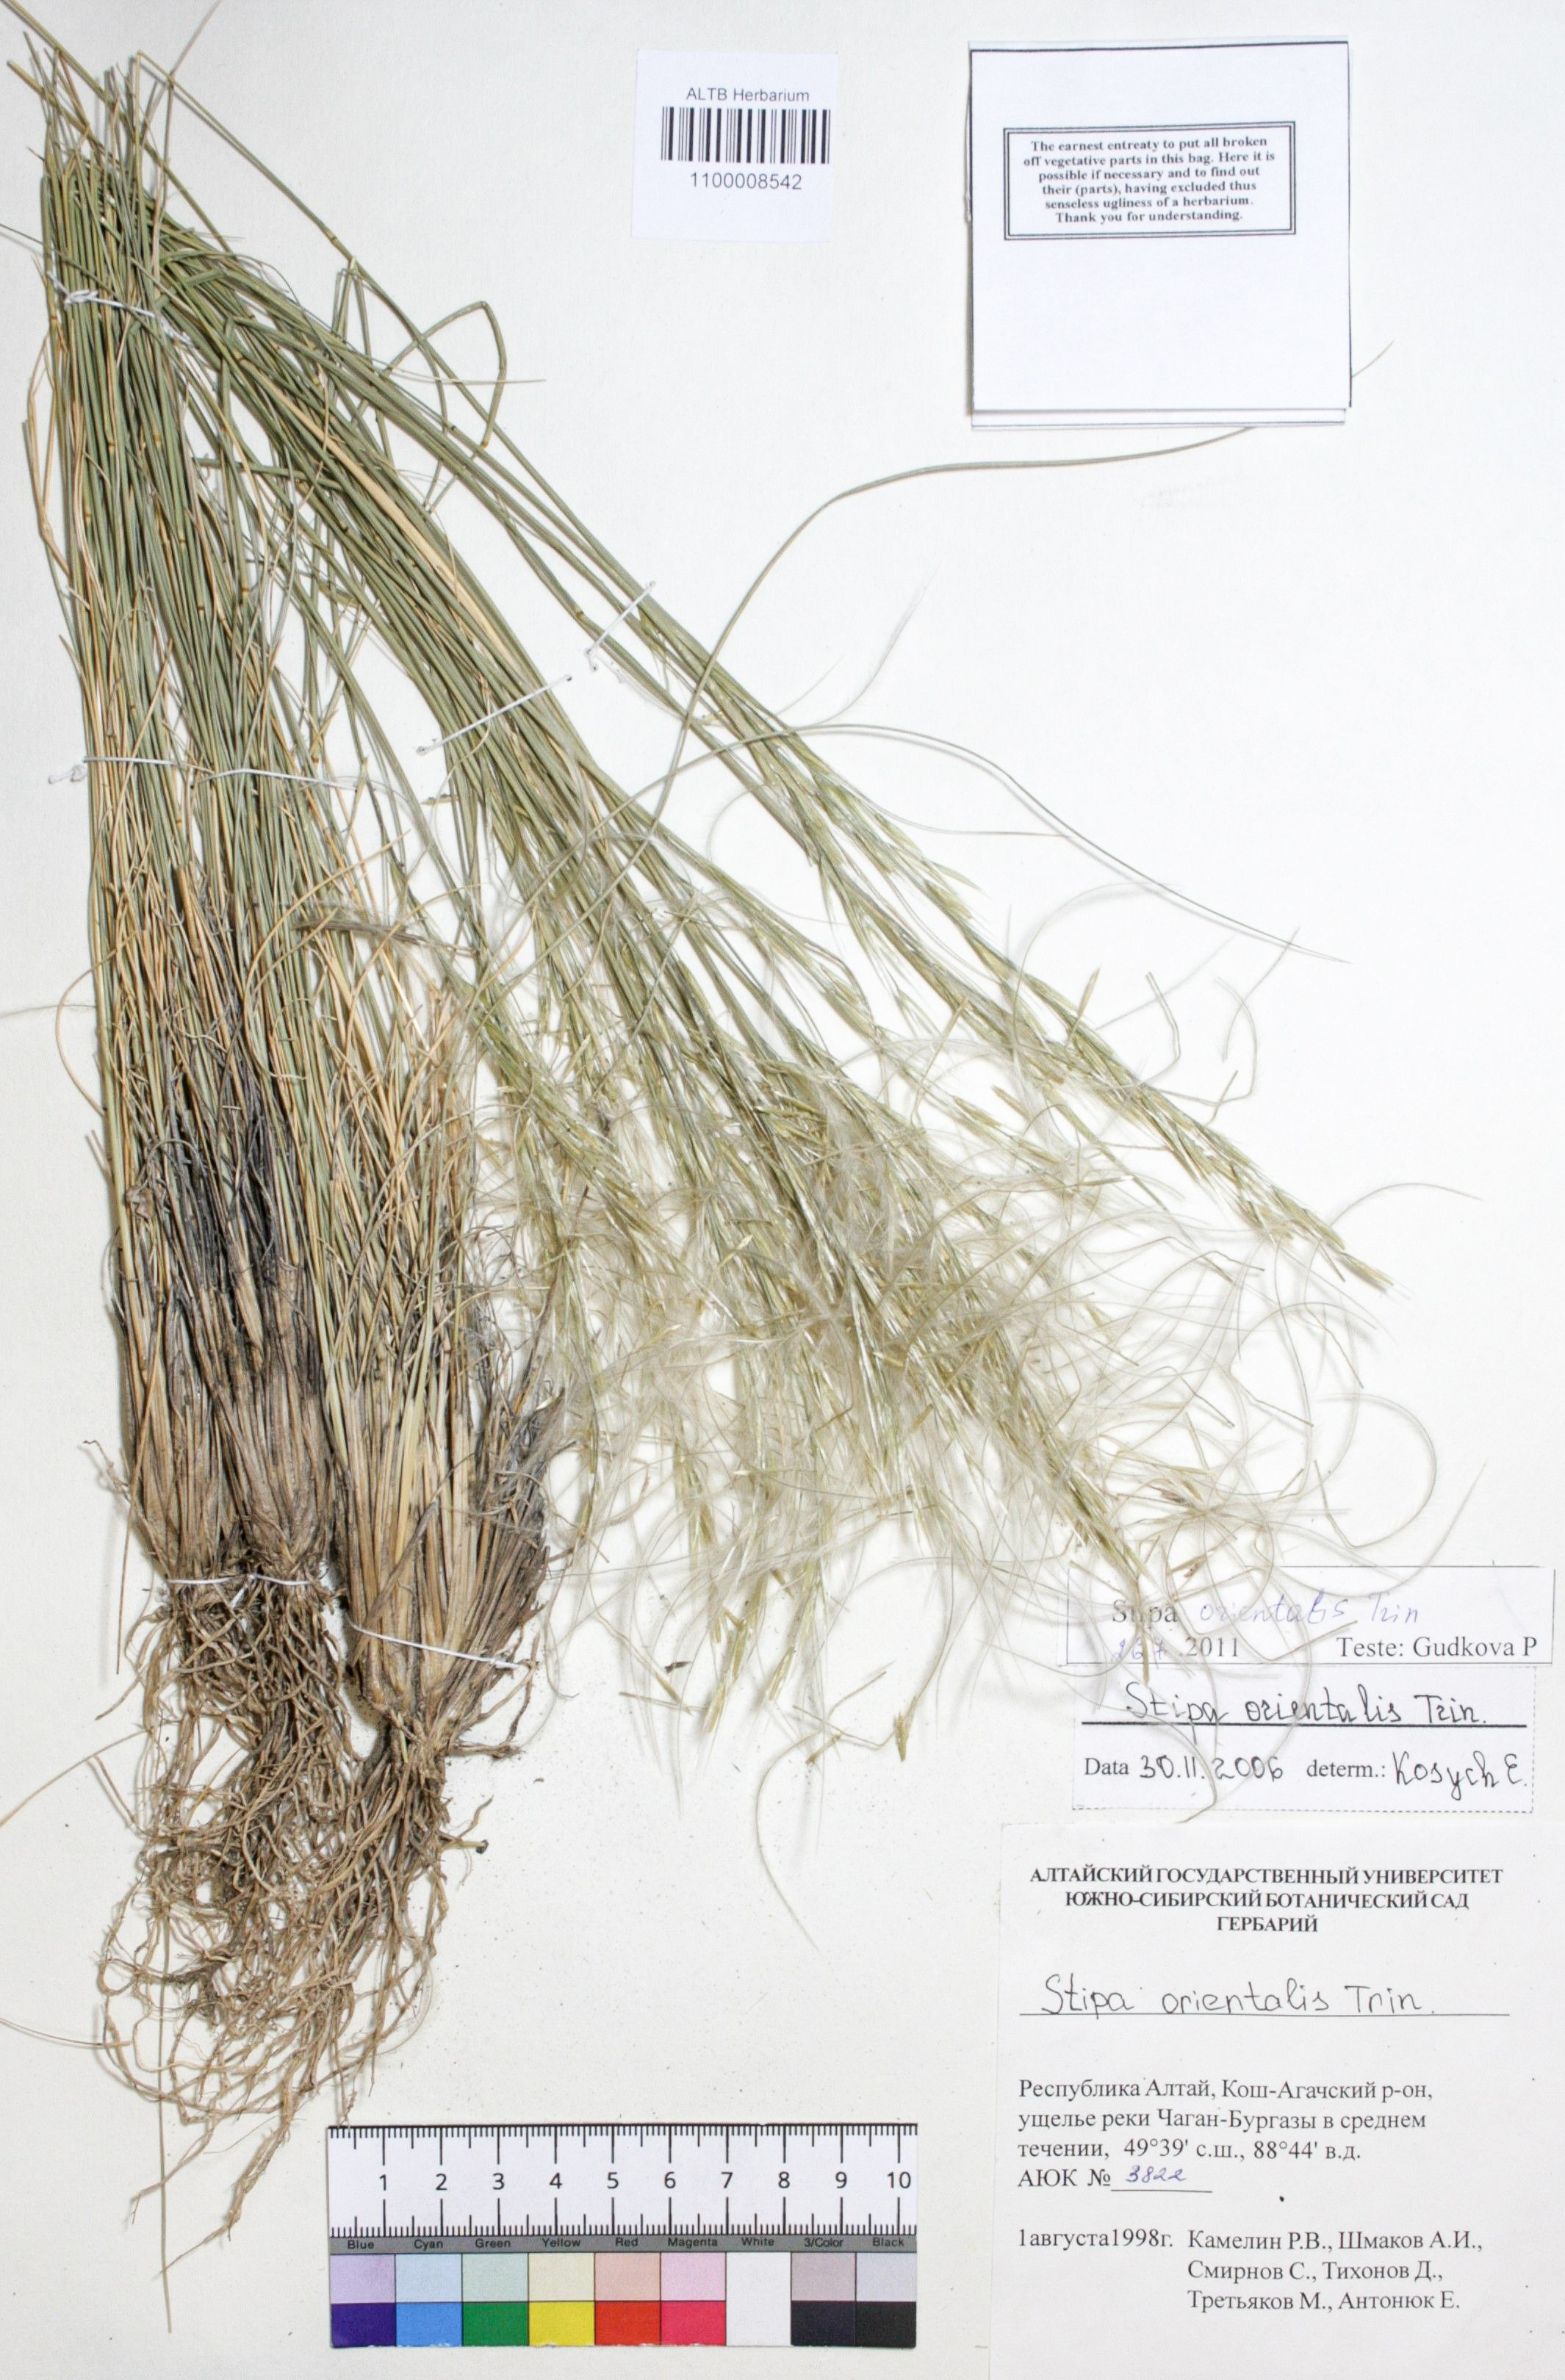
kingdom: Plantae
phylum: Tracheophyta
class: Liliopsida
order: Poales
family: Poaceae
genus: Stipa
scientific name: Stipa orientalis
